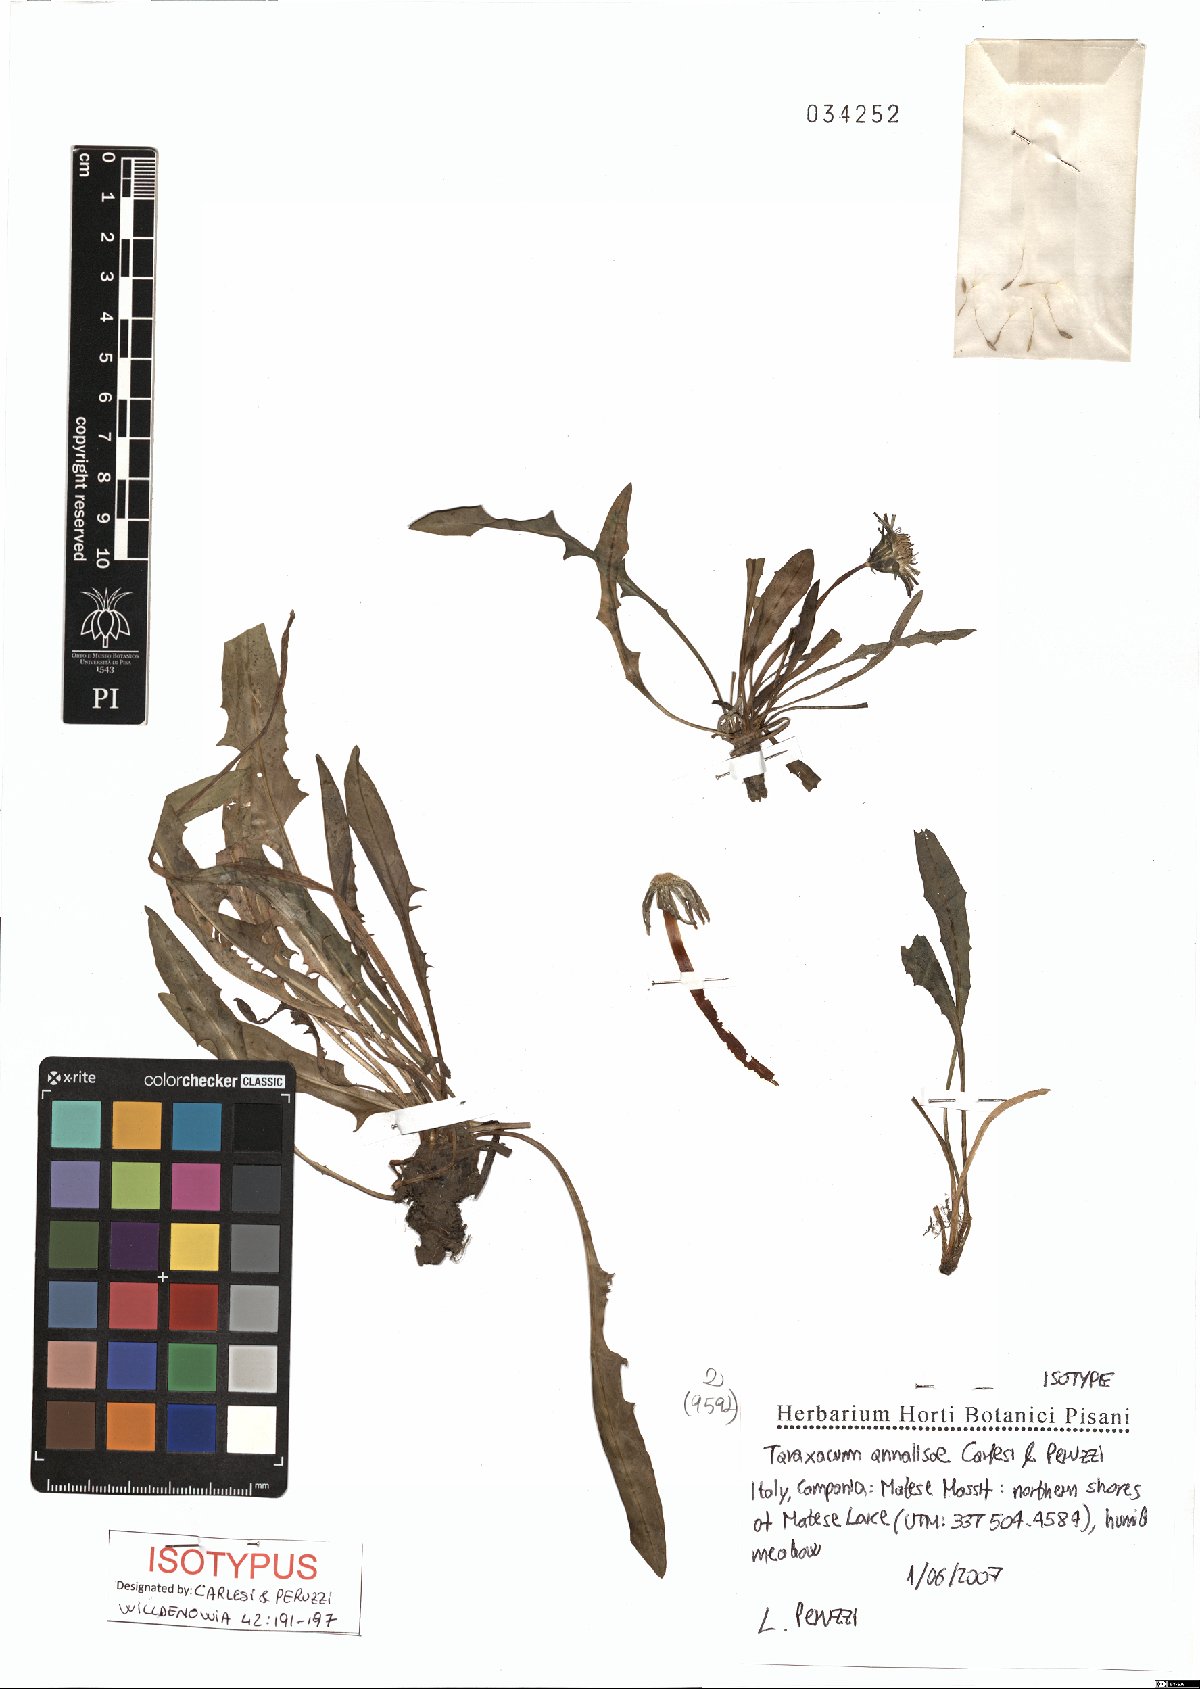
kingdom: Plantae
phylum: Tracheophyta
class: Magnoliopsida
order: Asterales
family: Asteraceae
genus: Taraxacum
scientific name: Taraxacum annalisae
